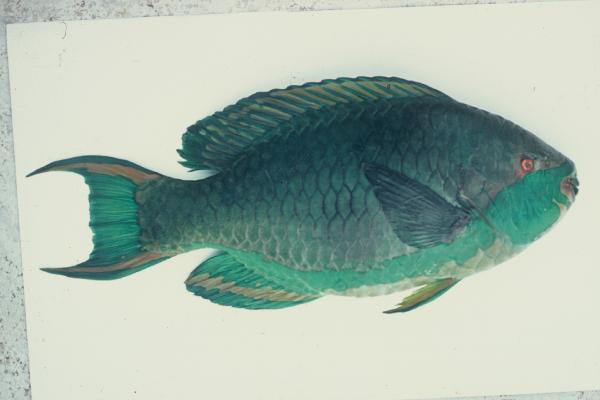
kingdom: Animalia
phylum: Chordata
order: Perciformes
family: Scaridae
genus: Scarus
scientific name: Scarus falcipinnis
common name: Greenbelly parrotfish
